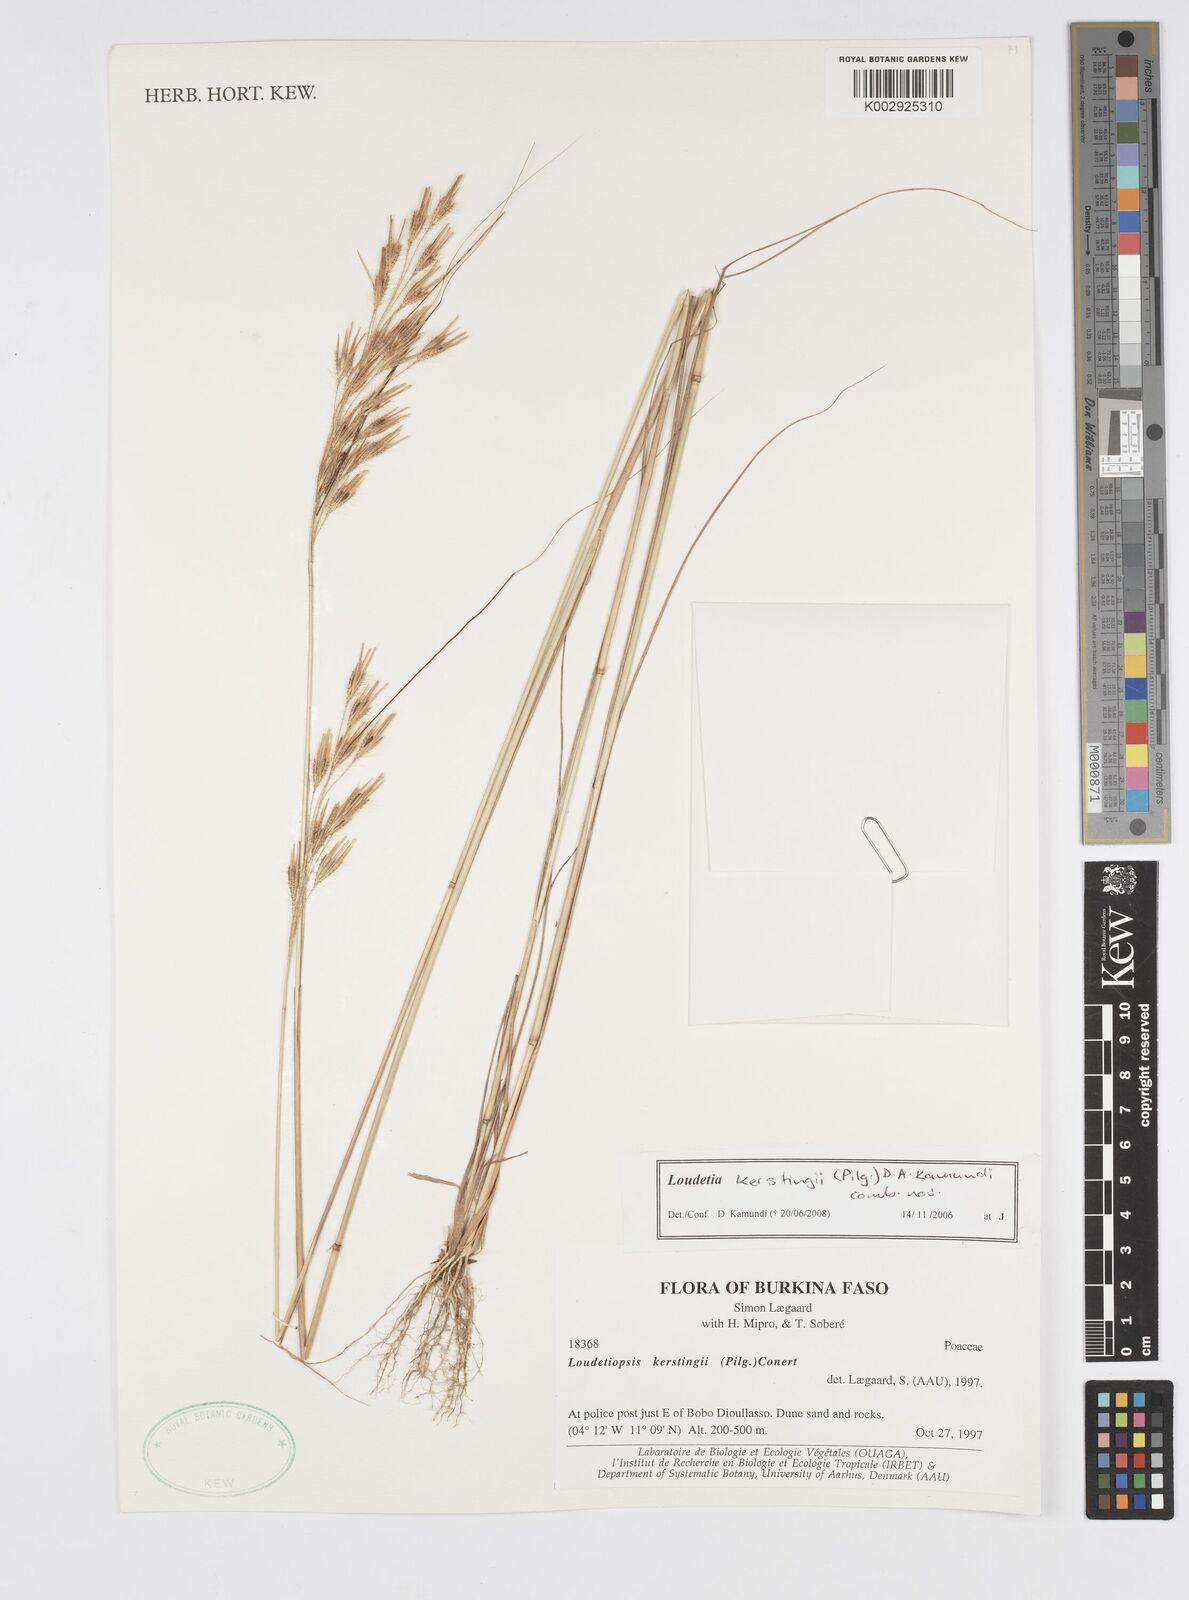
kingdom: Plantae
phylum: Tracheophyta
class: Liliopsida
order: Poales
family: Poaceae
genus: Loudetiopsis
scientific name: Loudetiopsis kerstingii
